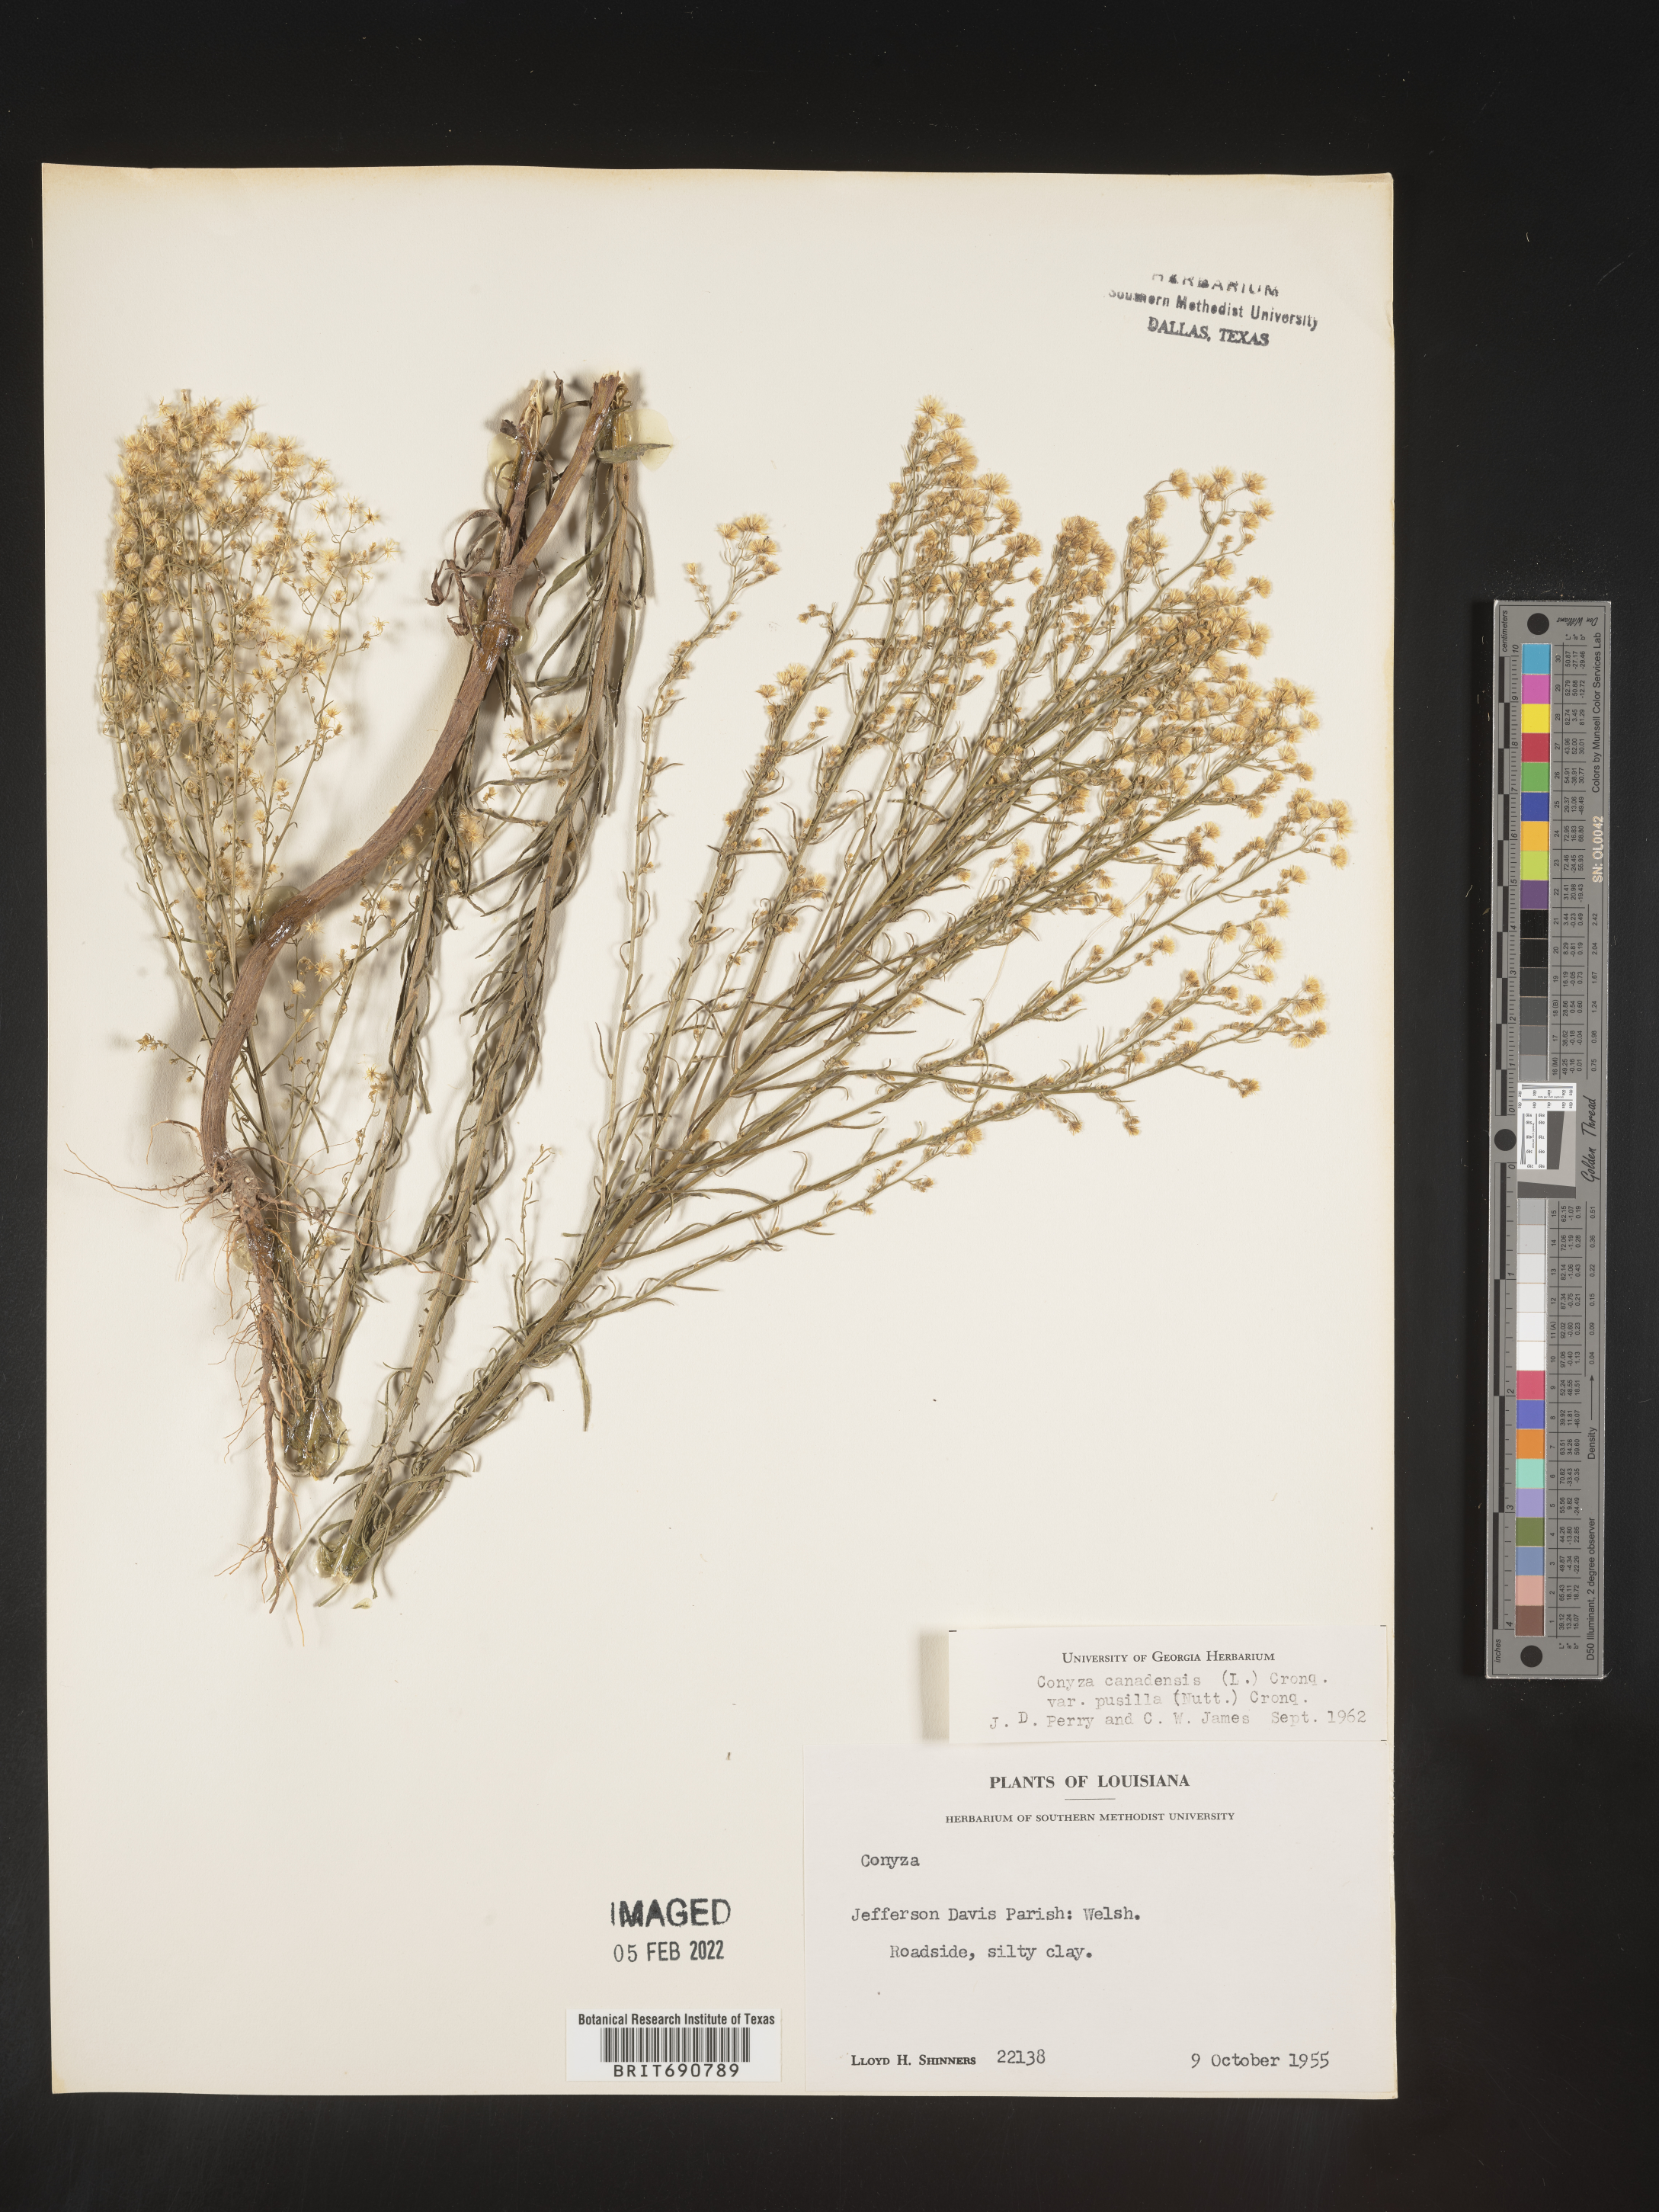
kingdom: Plantae
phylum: Tracheophyta
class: Magnoliopsida
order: Asterales
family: Asteraceae
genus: Erigeron
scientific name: Erigeron canadensis
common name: Canadian fleabane
